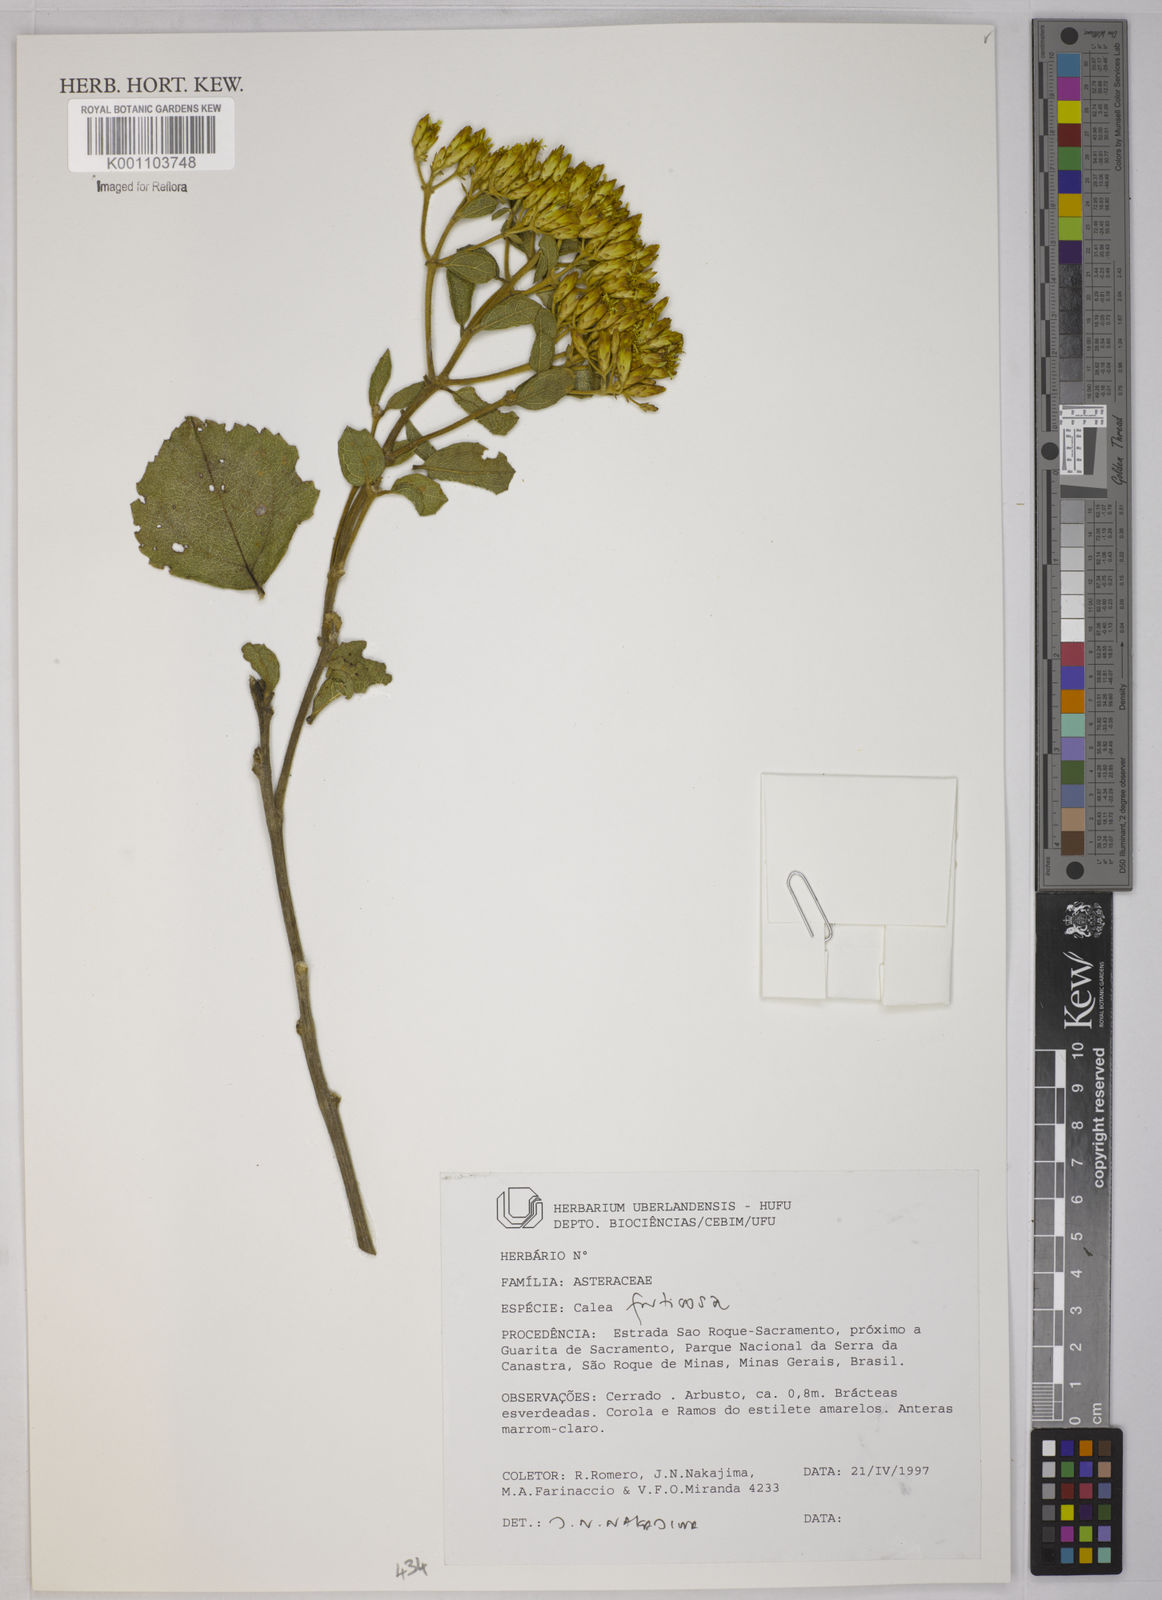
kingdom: Plantae
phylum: Tracheophyta
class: Magnoliopsida
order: Asterales
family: Asteraceae
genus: Calea
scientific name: Calea fruticosa
